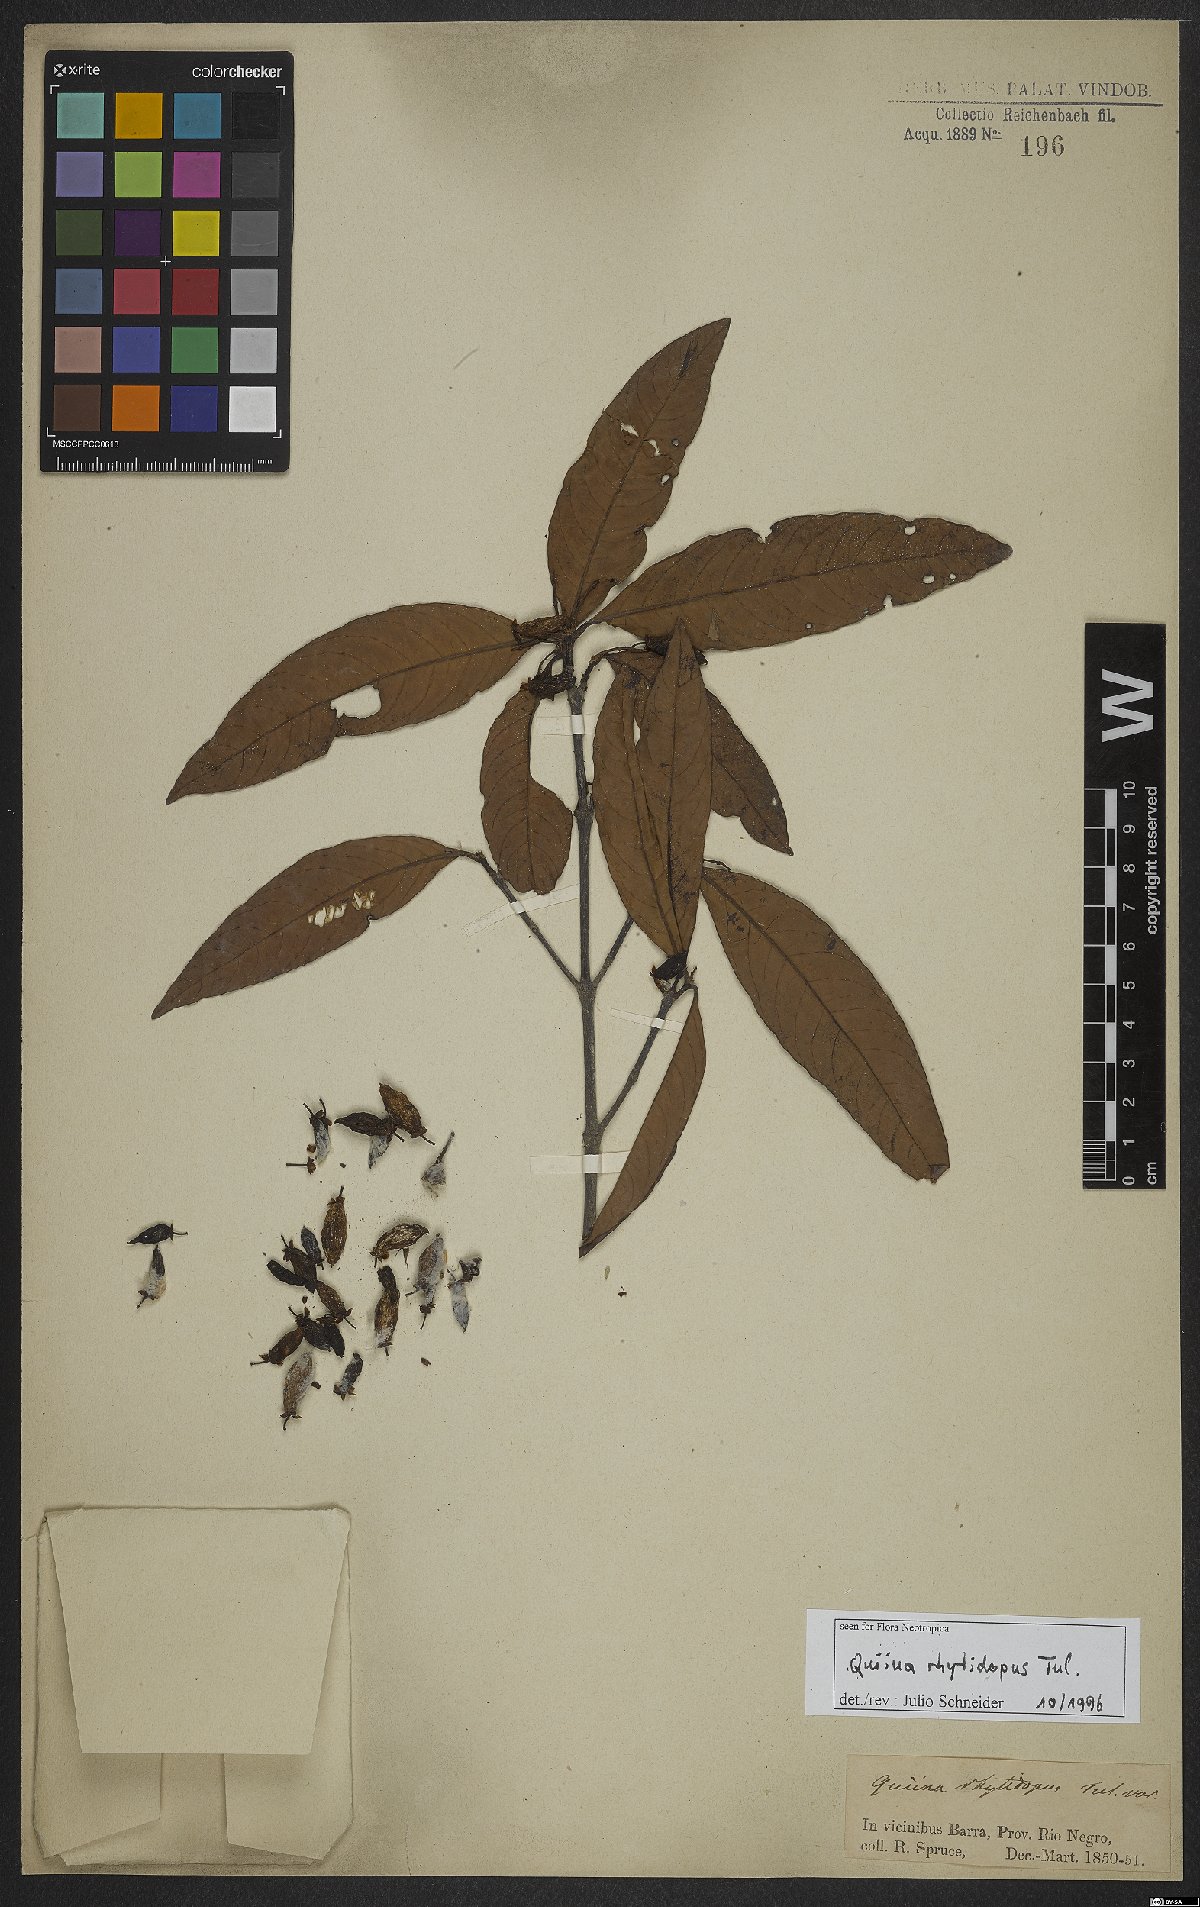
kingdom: Plantae
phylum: Tracheophyta
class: Magnoliopsida
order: Malpighiales
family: Quiinaceae
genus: Quiina
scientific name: Quiina rhytidopus
